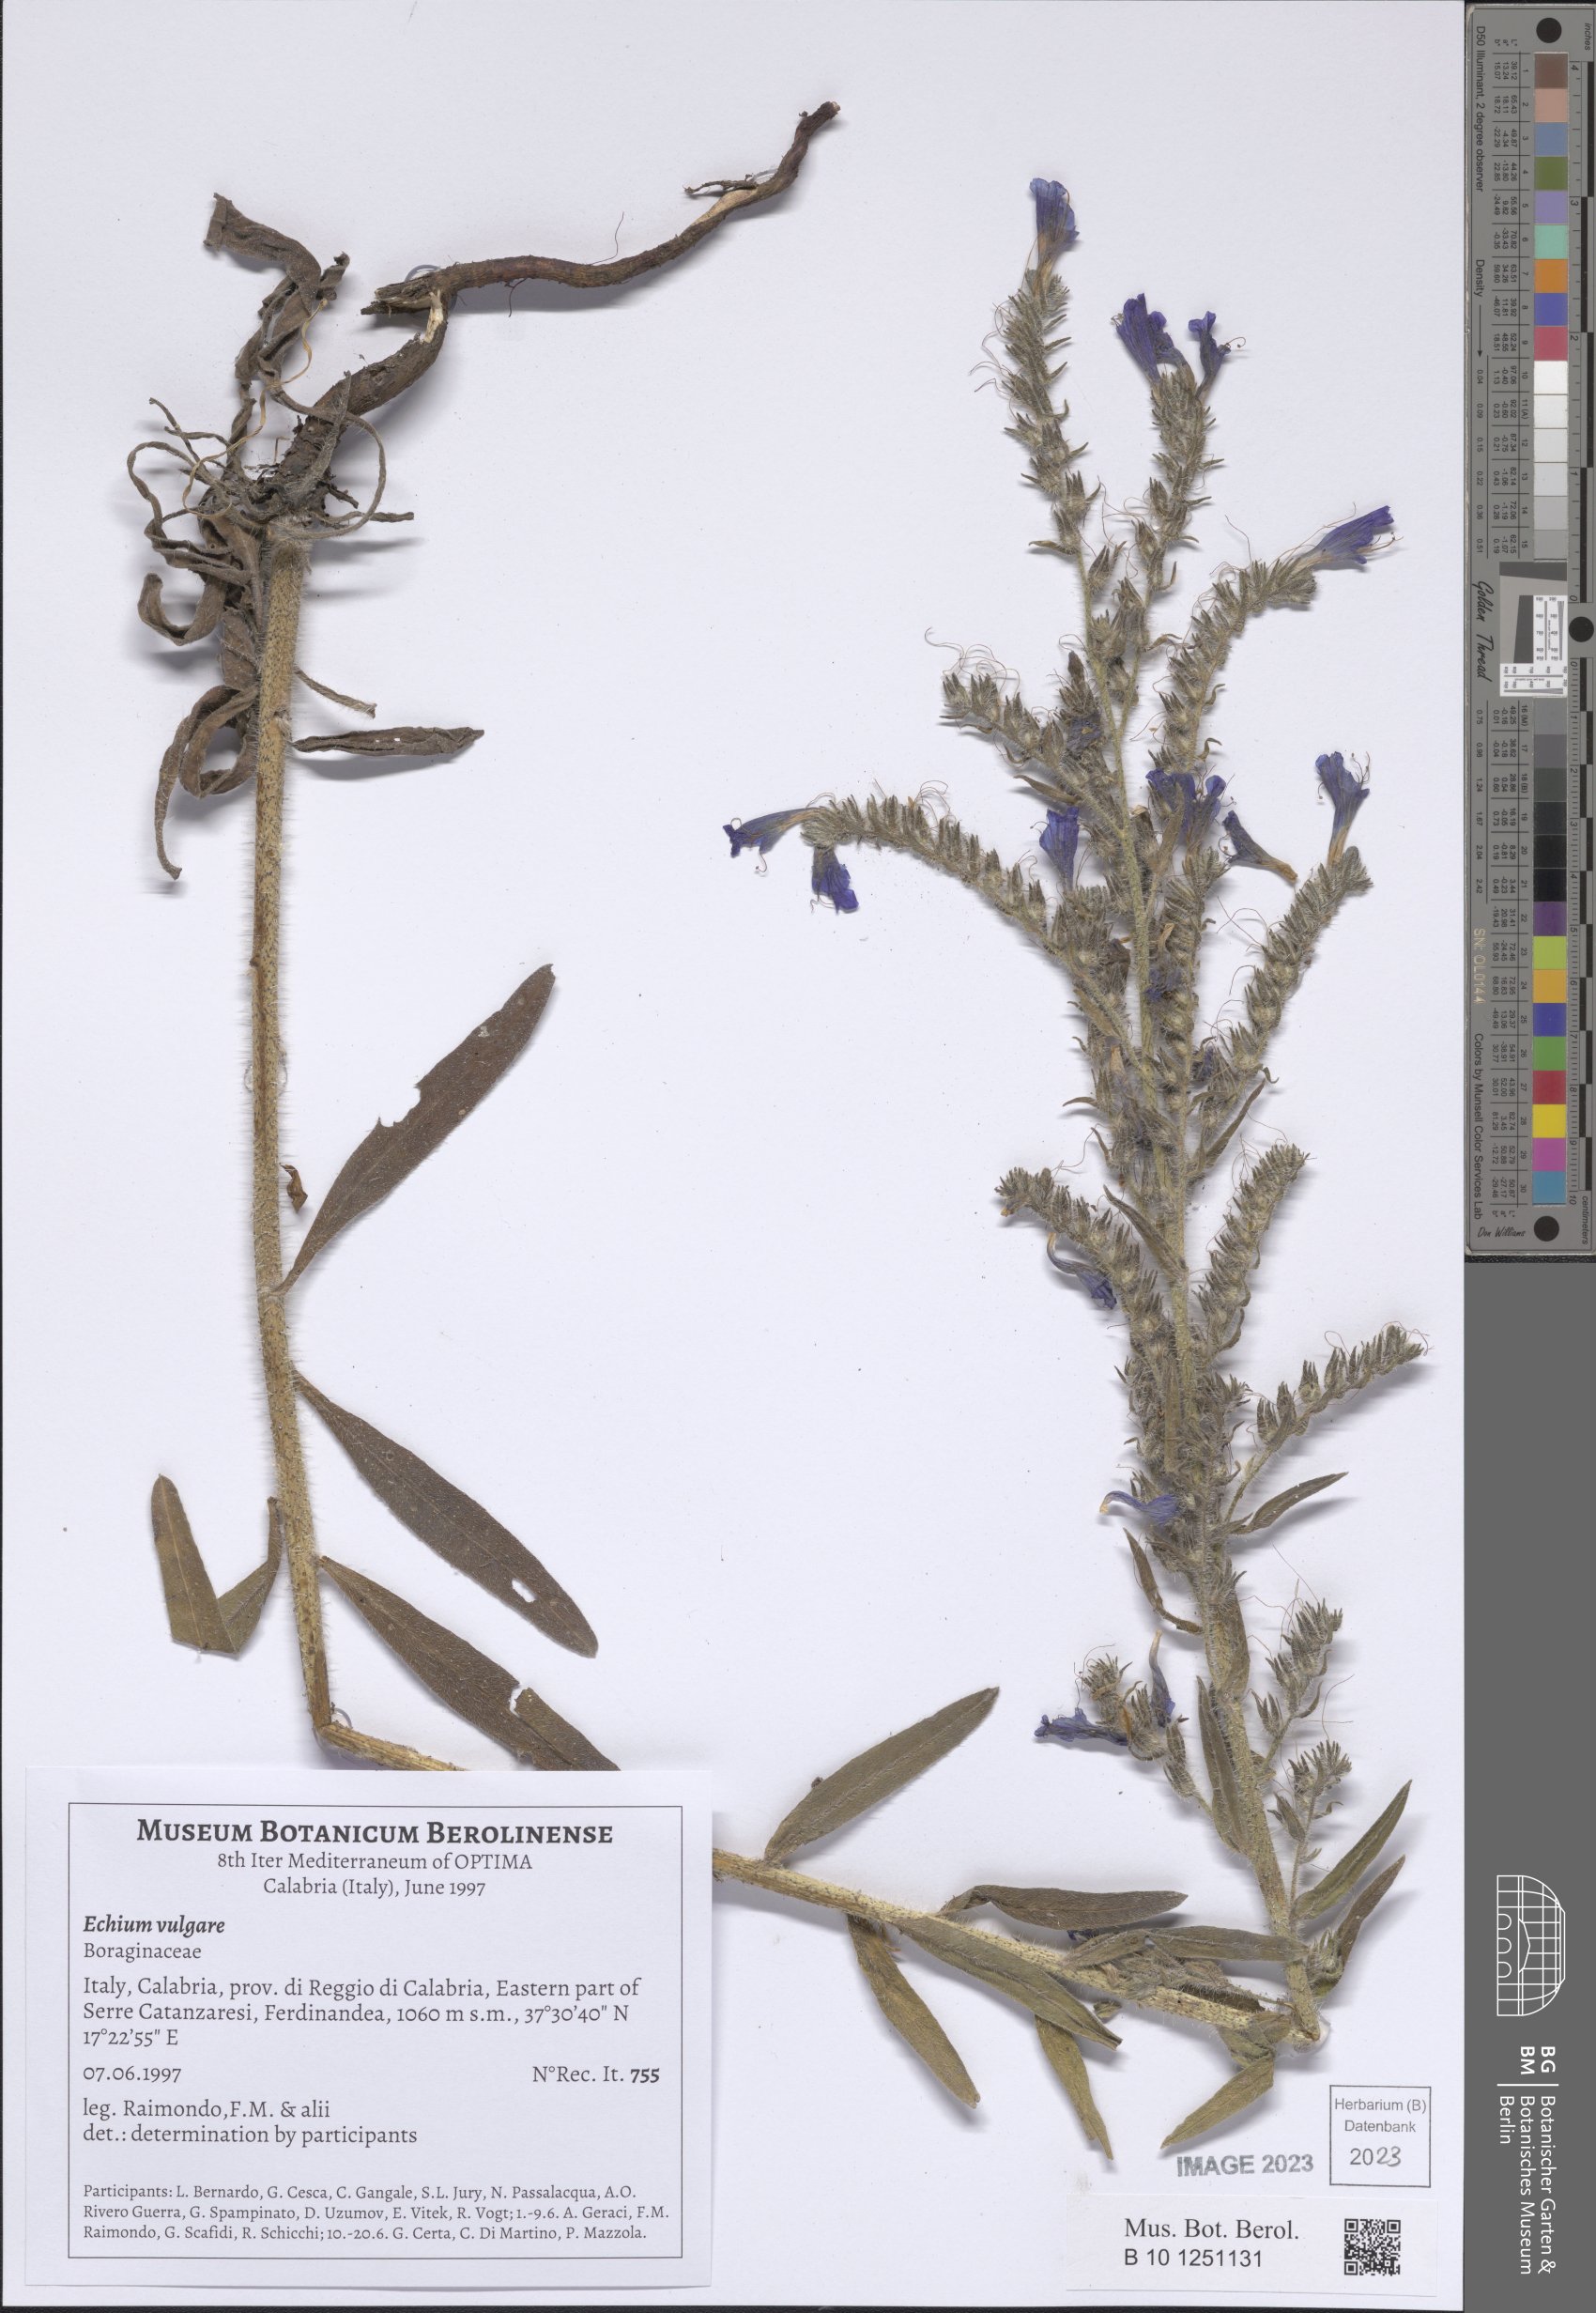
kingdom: Plantae
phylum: Tracheophyta
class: Magnoliopsida
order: Boraginales
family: Boraginaceae
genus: Echium
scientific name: Echium vulgare
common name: Common viper's bugloss
